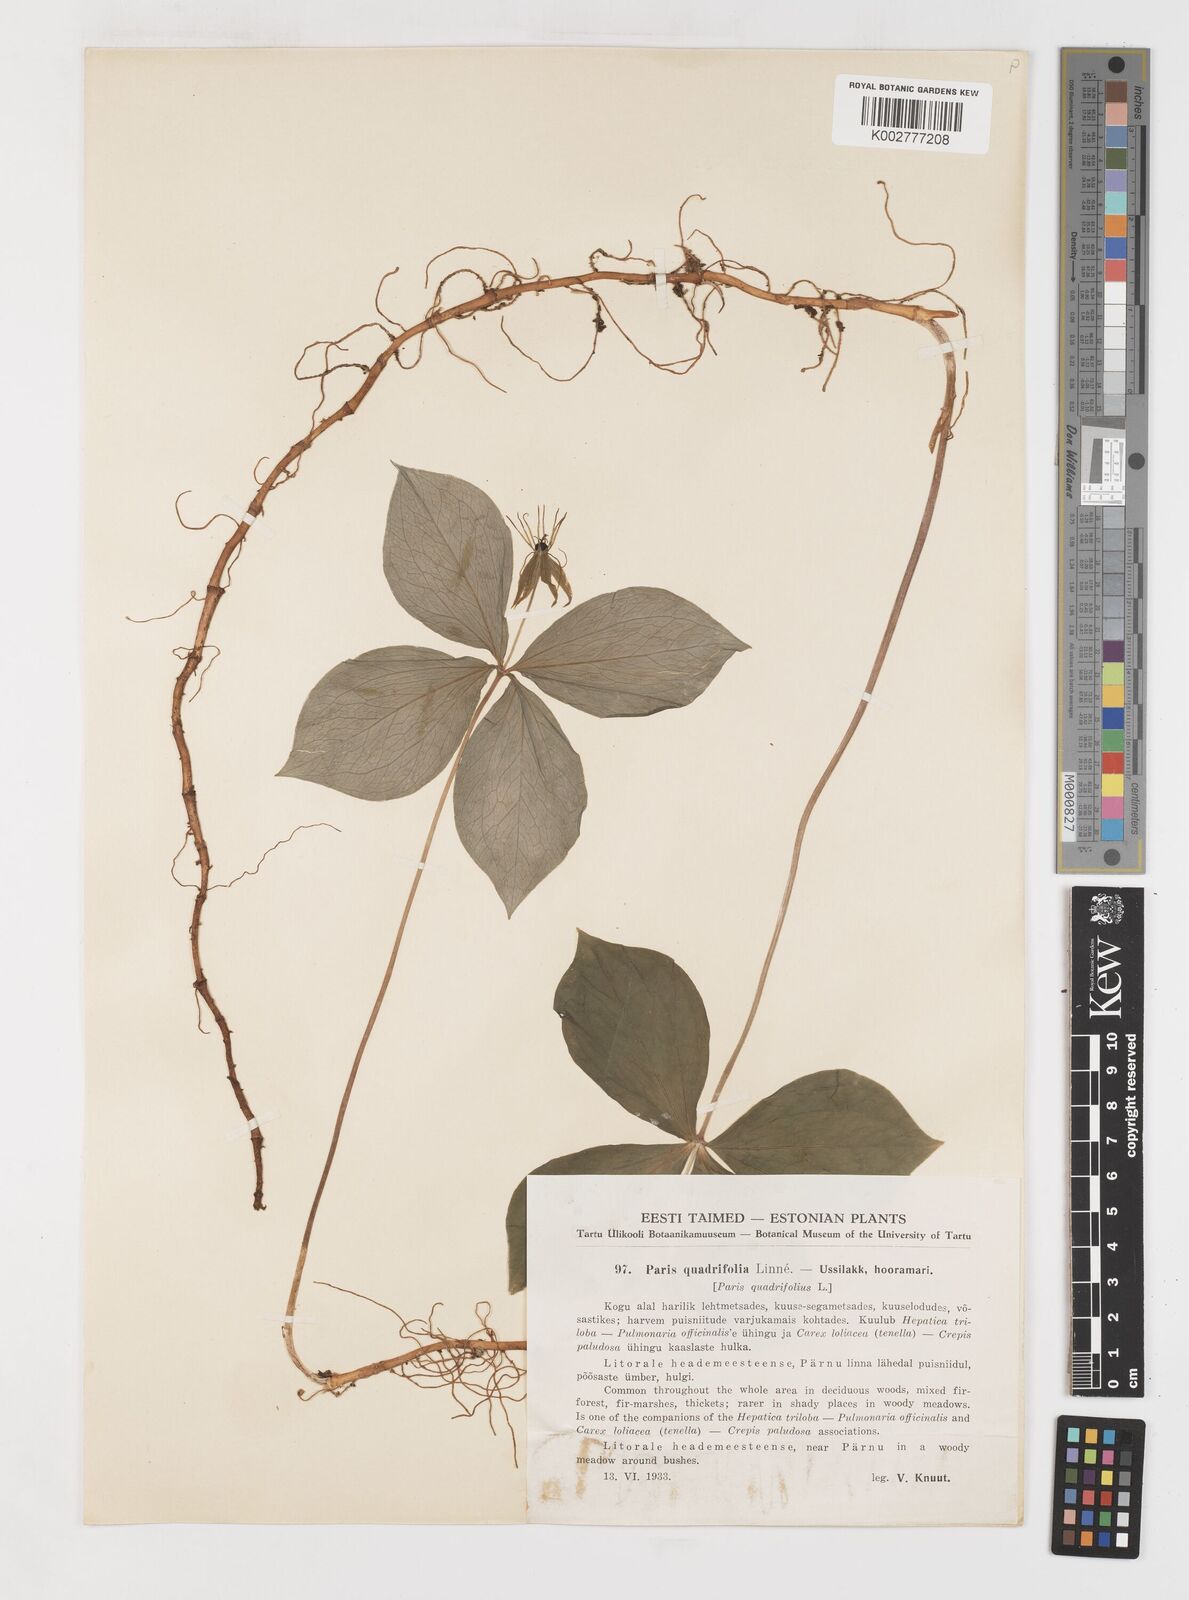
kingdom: Plantae
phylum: Tracheophyta
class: Liliopsida
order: Liliales
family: Melanthiaceae
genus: Paris
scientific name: Paris quadrifolia
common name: Herb-paris
